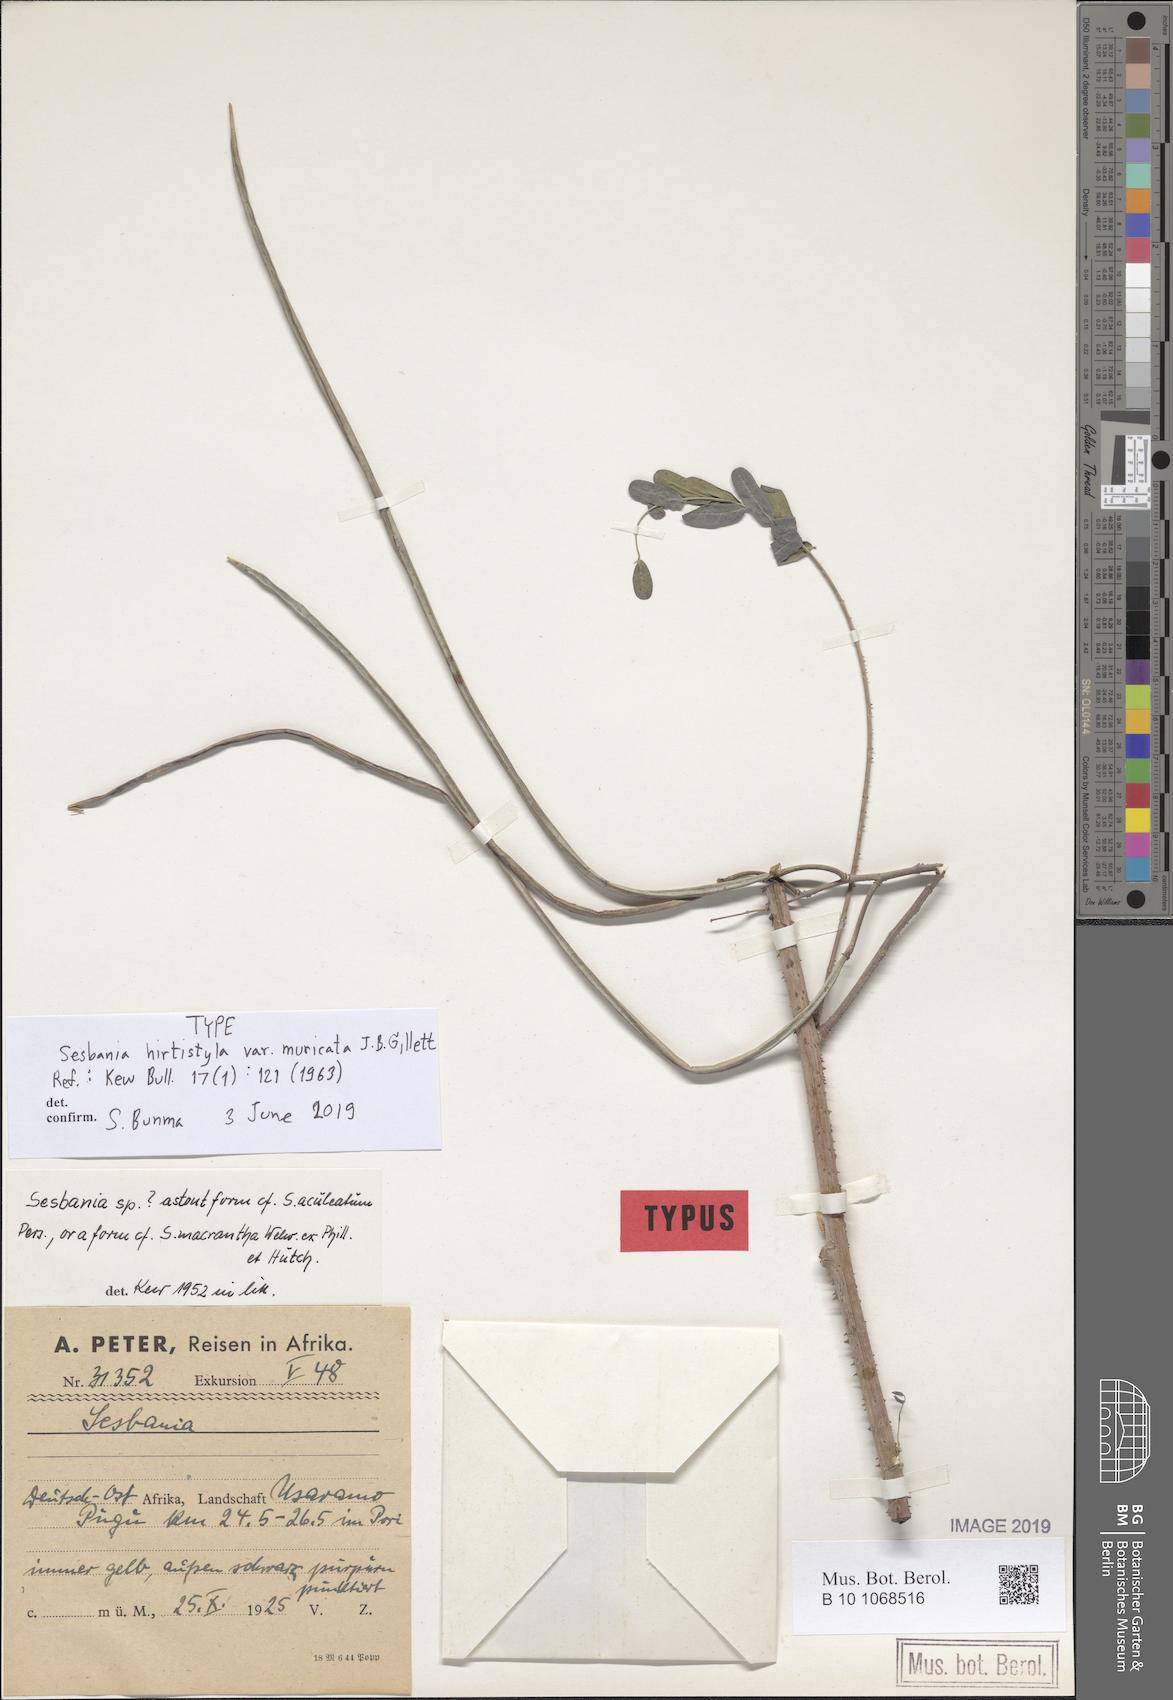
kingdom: Plantae
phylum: Tracheophyta
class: Magnoliopsida
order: Fabales
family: Fabaceae
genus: Sesbania
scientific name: Sesbania hirtistyla
